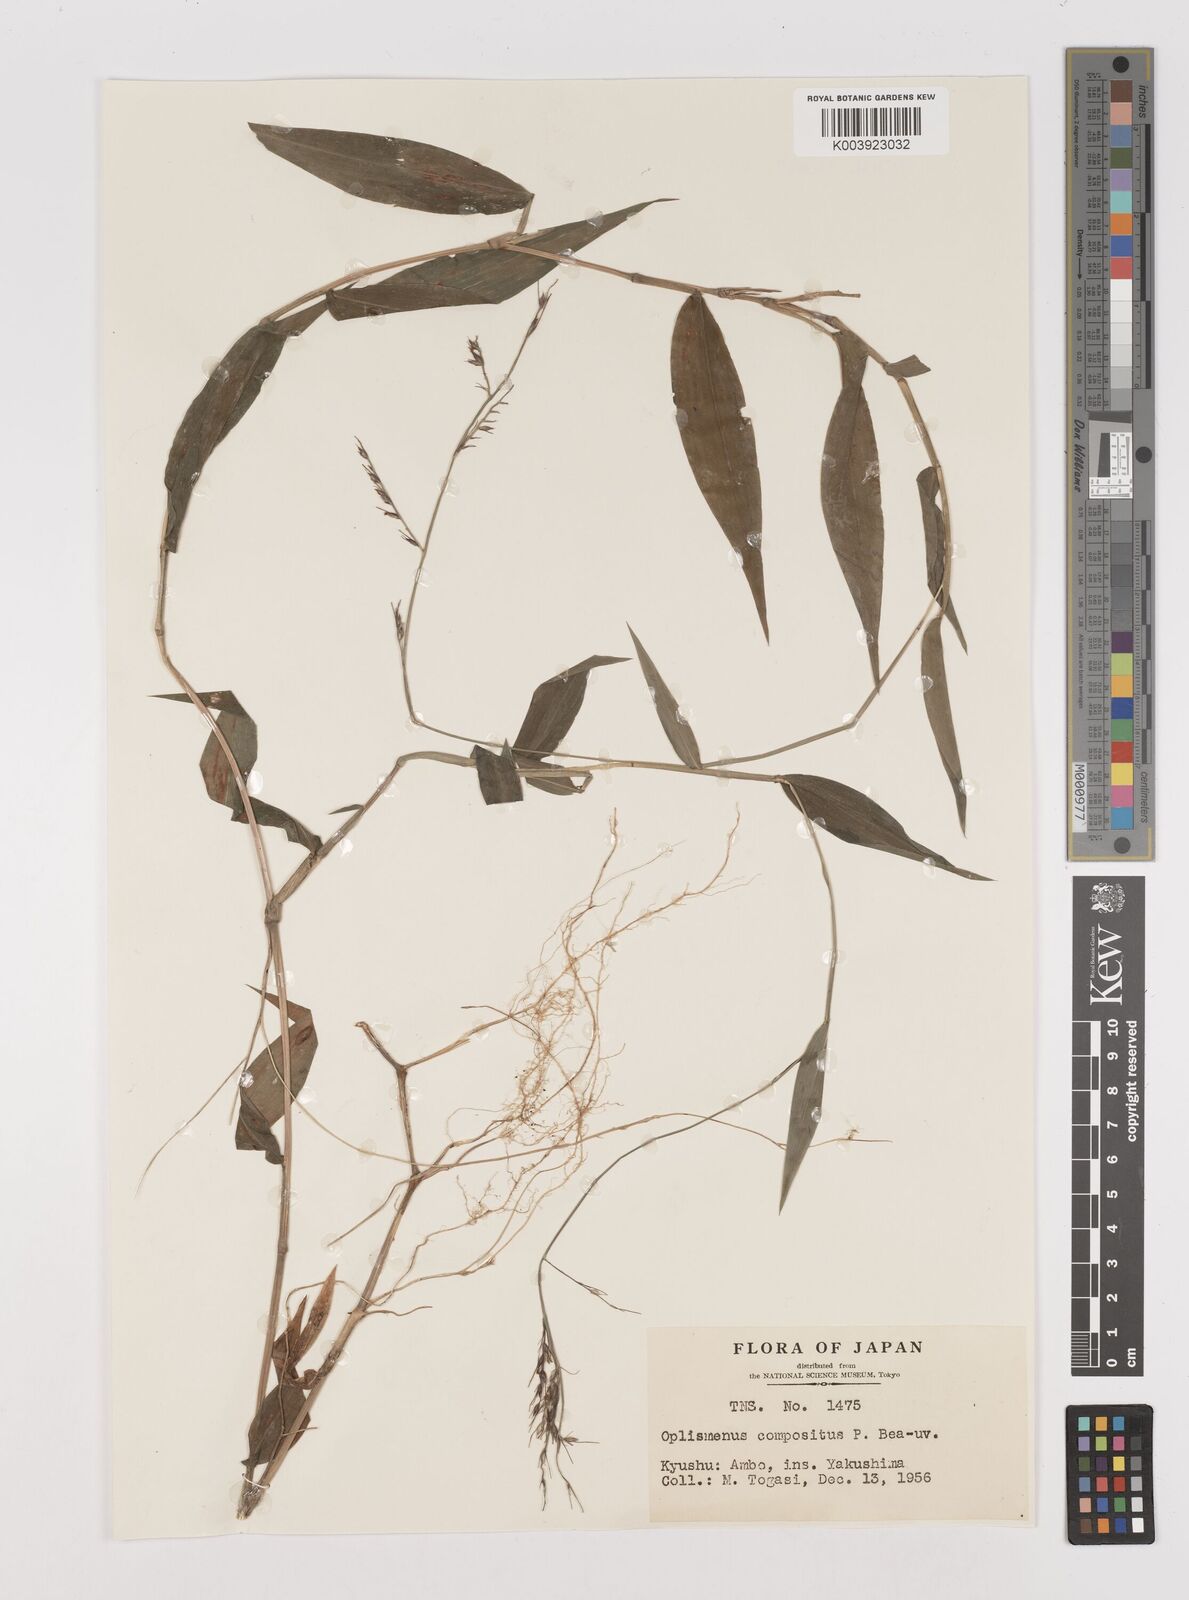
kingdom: Plantae
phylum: Tracheophyta
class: Liliopsida
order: Poales
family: Poaceae
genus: Oplismenus
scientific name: Oplismenus compositus
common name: Running mountain grass
